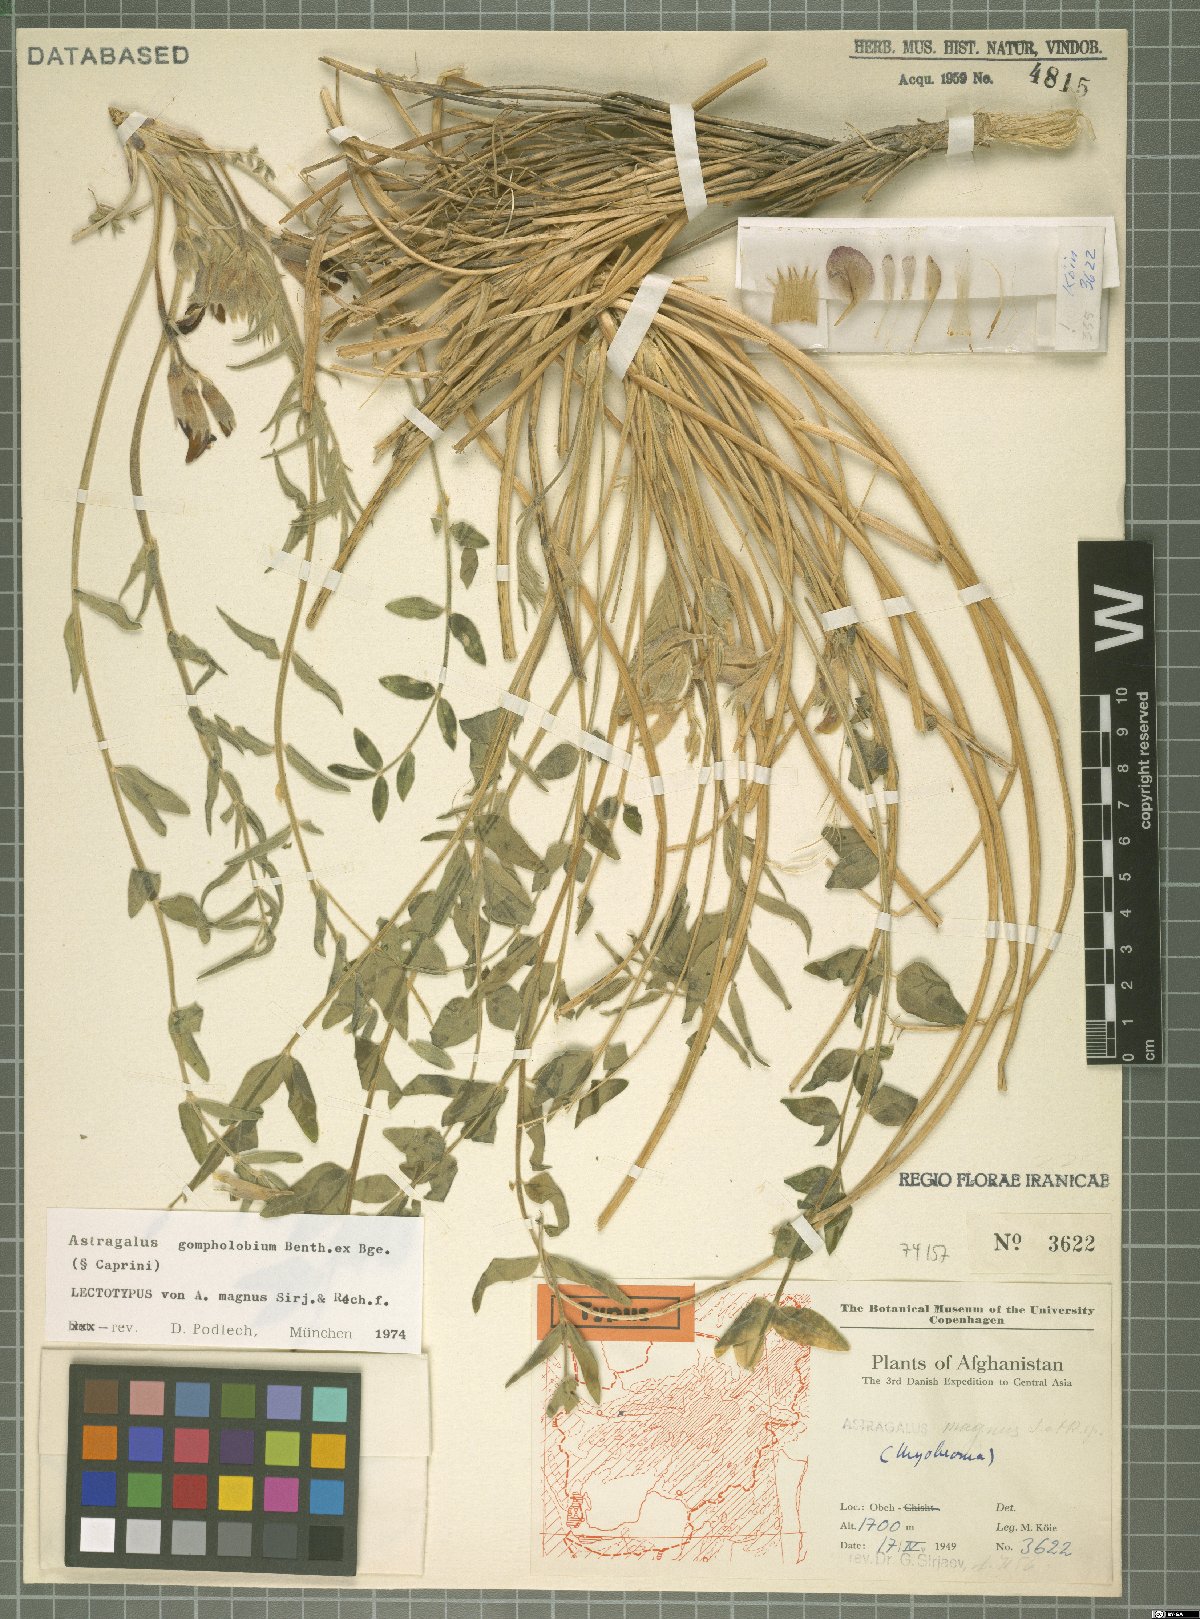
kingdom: Plantae
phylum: Tracheophyta
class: Magnoliopsida
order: Fabales
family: Fabaceae
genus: Astragalus
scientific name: Astragalus gompholobium
